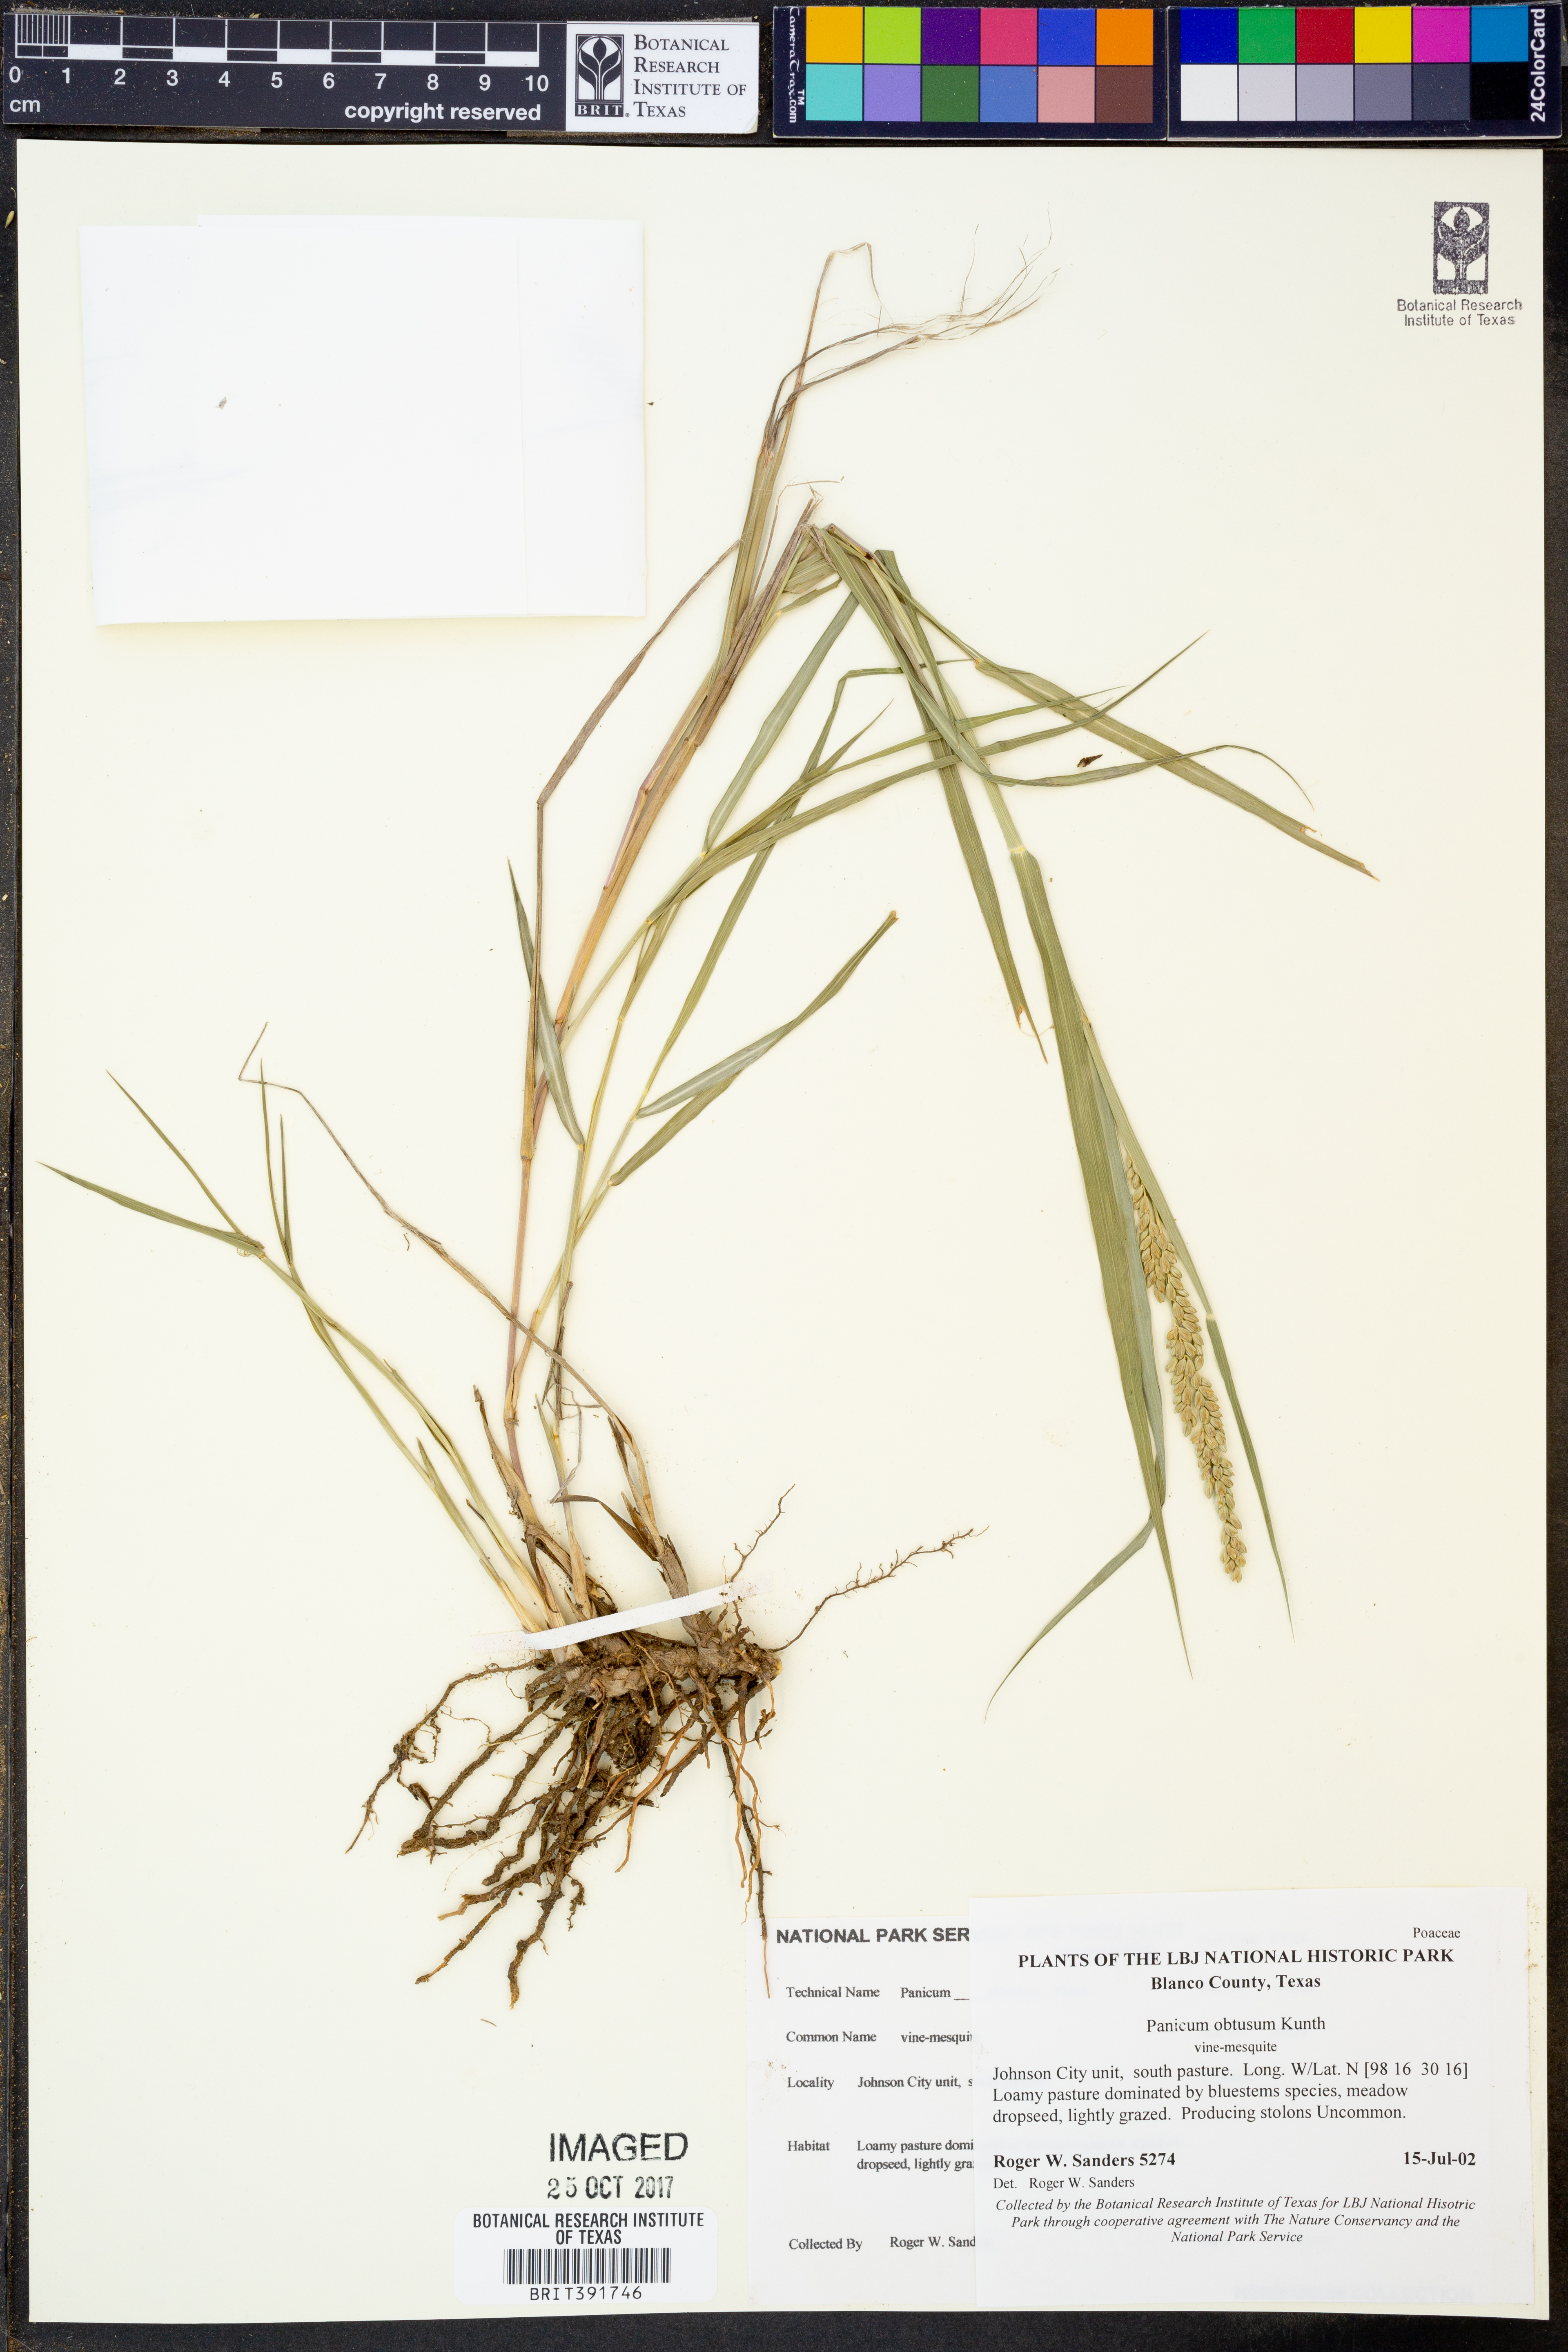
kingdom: Plantae
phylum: Tracheophyta
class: Liliopsida
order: Poales
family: Poaceae
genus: Hopia
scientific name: Hopia obtusa
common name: Vine-mesquite
